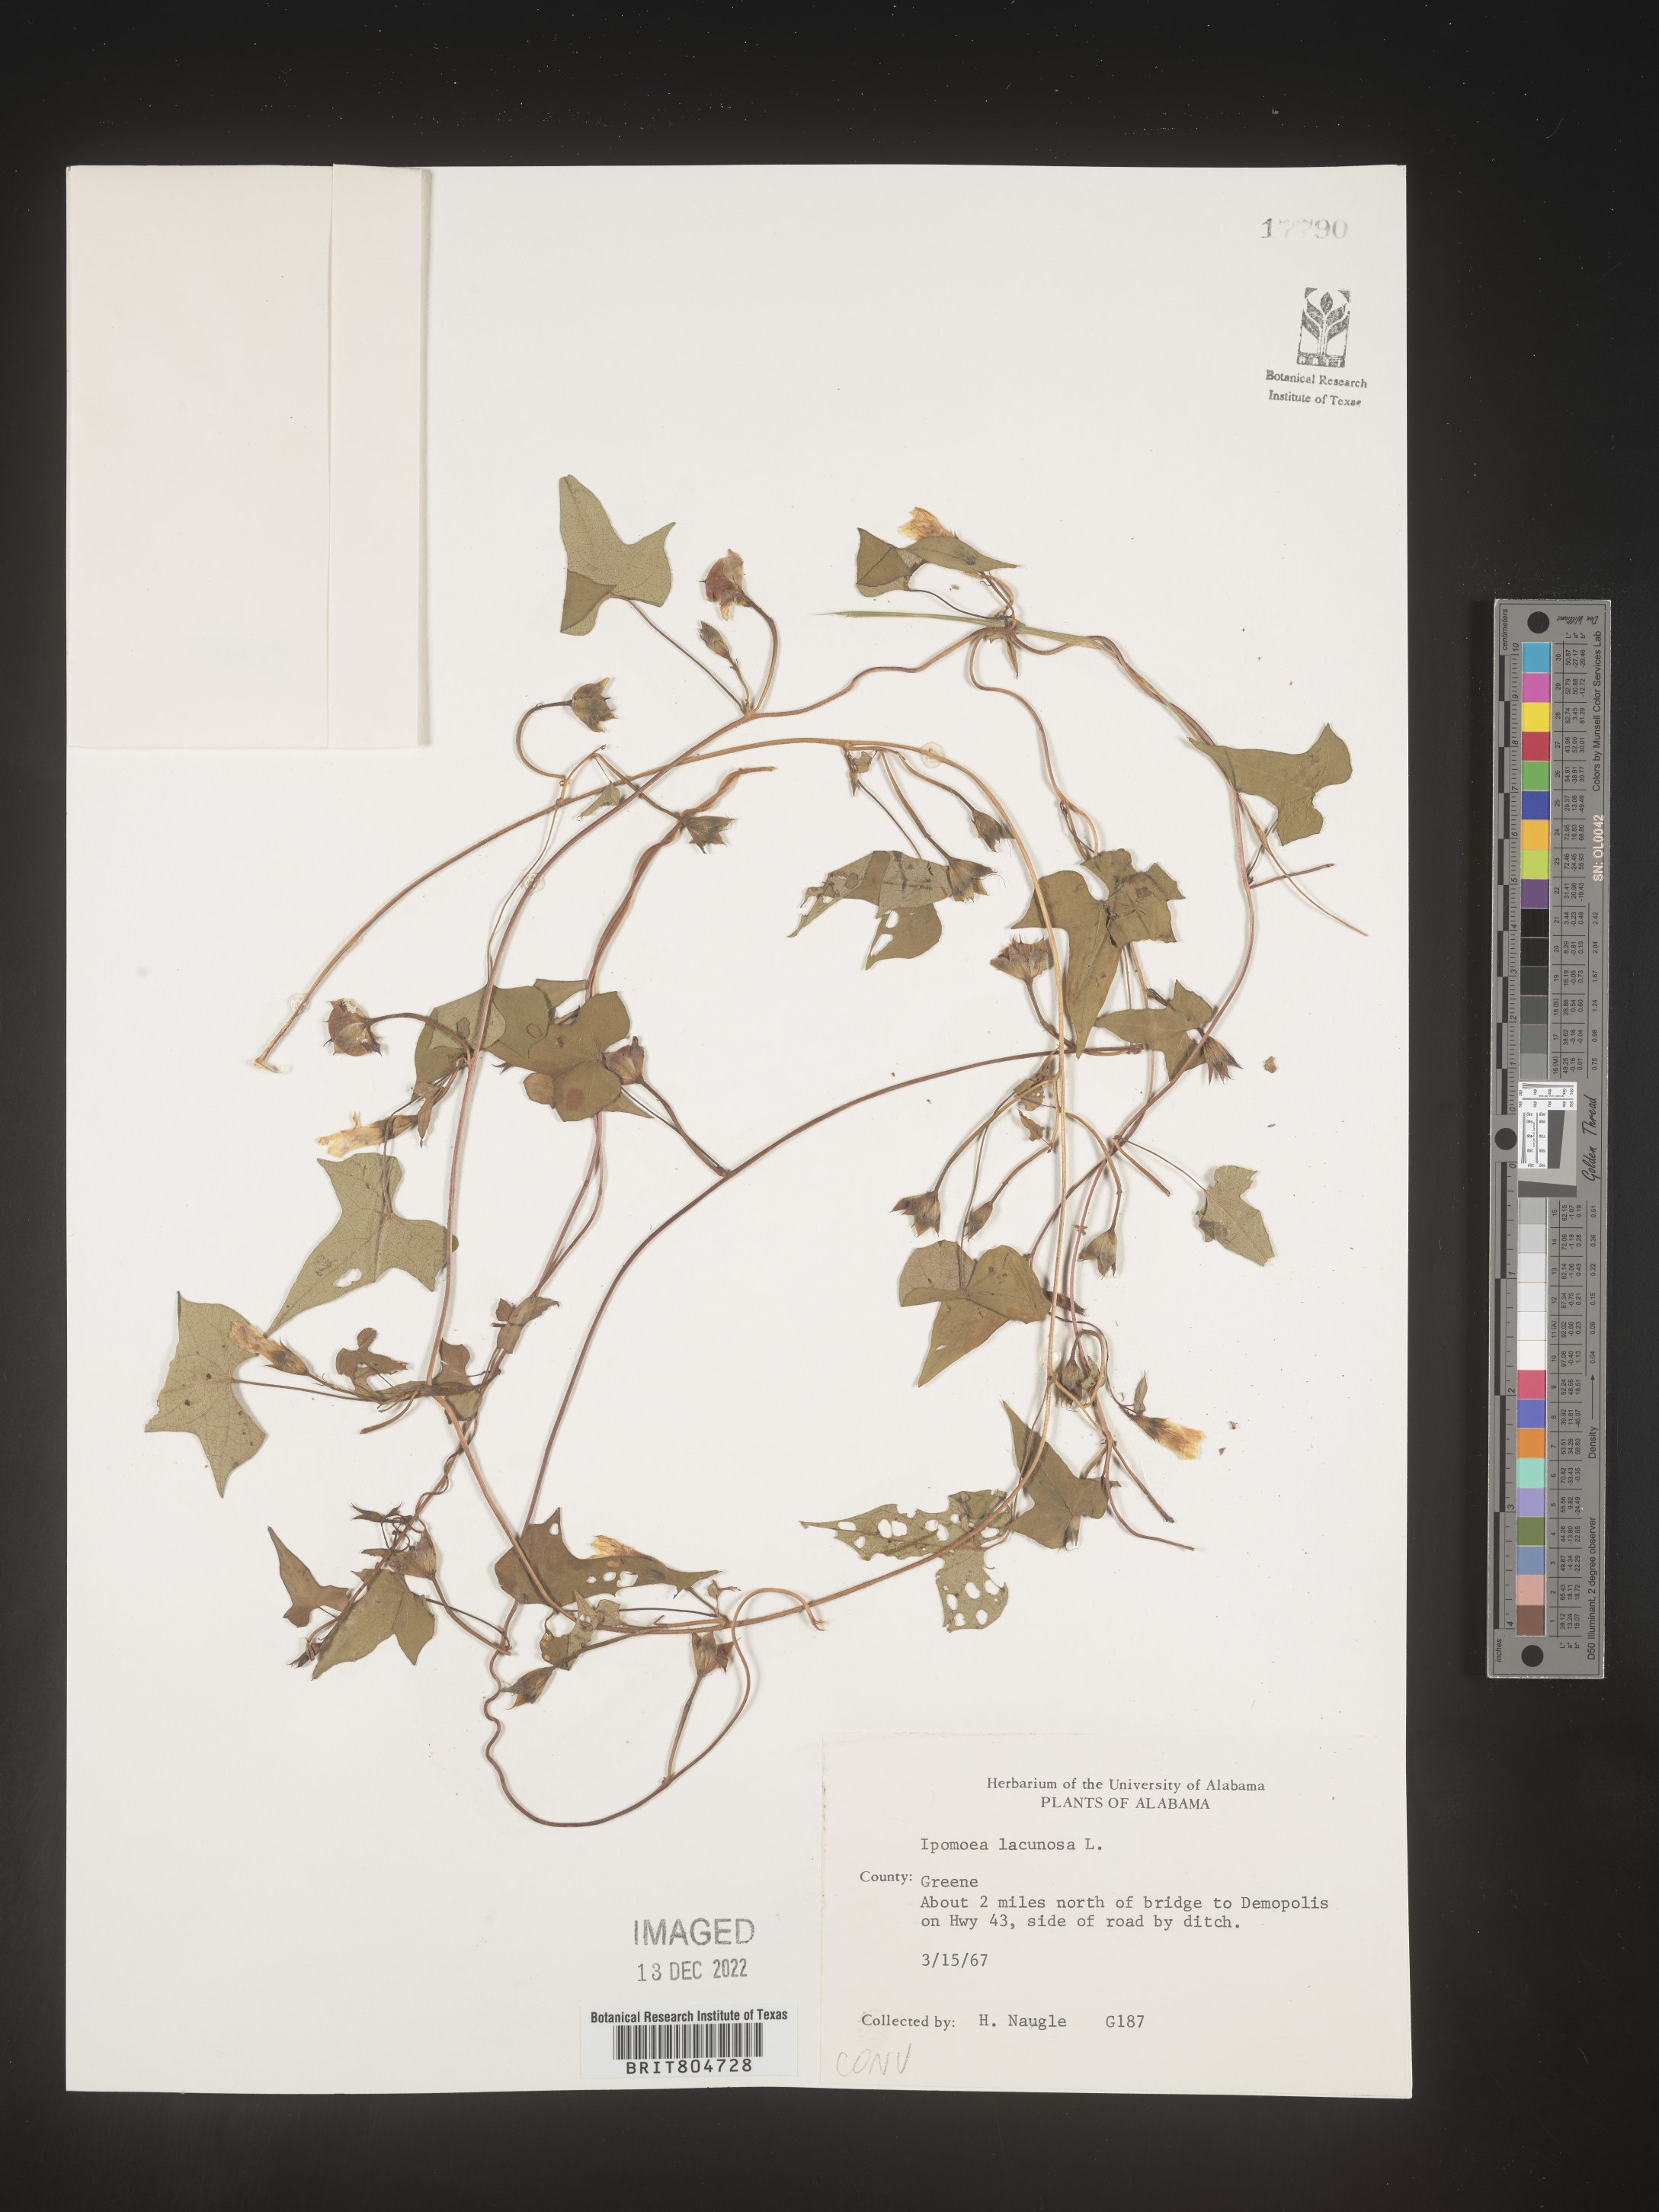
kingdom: Plantae
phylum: Tracheophyta
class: Magnoliopsida
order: Solanales
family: Convolvulaceae
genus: Ipomoea
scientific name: Ipomoea lacunosa
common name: White morning-glory
